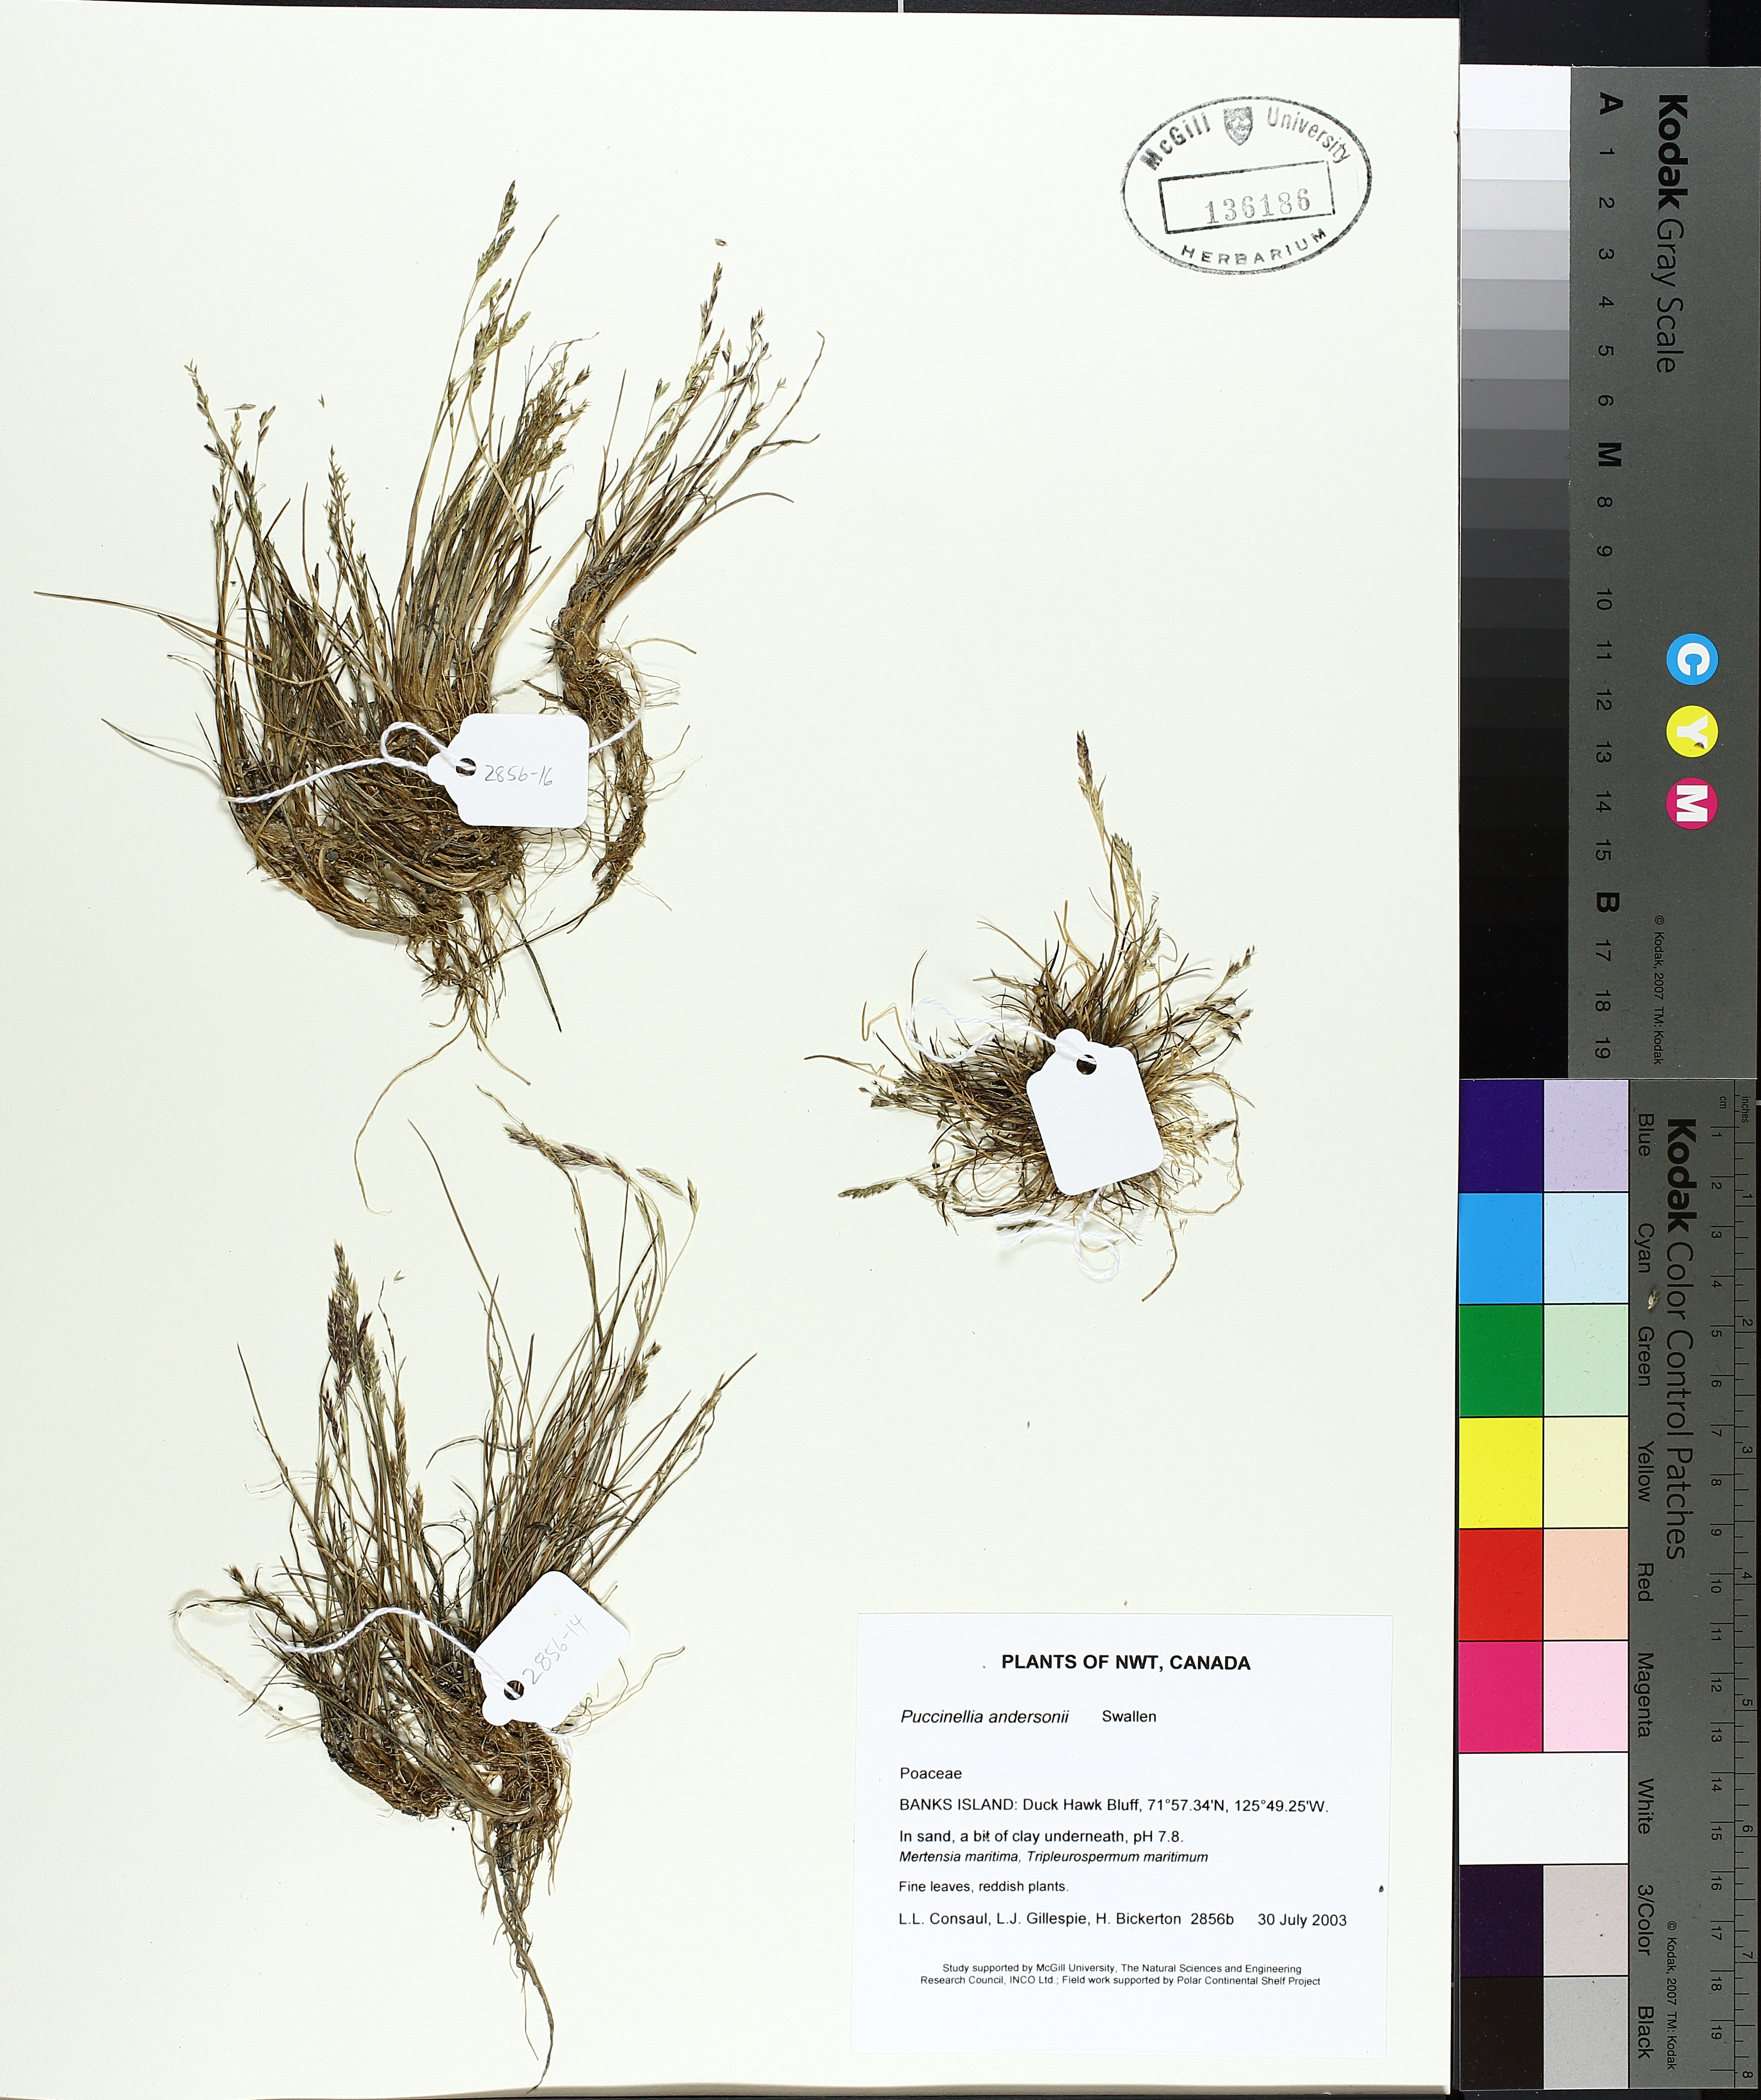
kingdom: Plantae
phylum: Tracheophyta
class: Liliopsida
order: Poales
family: Poaceae
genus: Puccinellia
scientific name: Puccinellia andersonii
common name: Anderson's alkali grass
